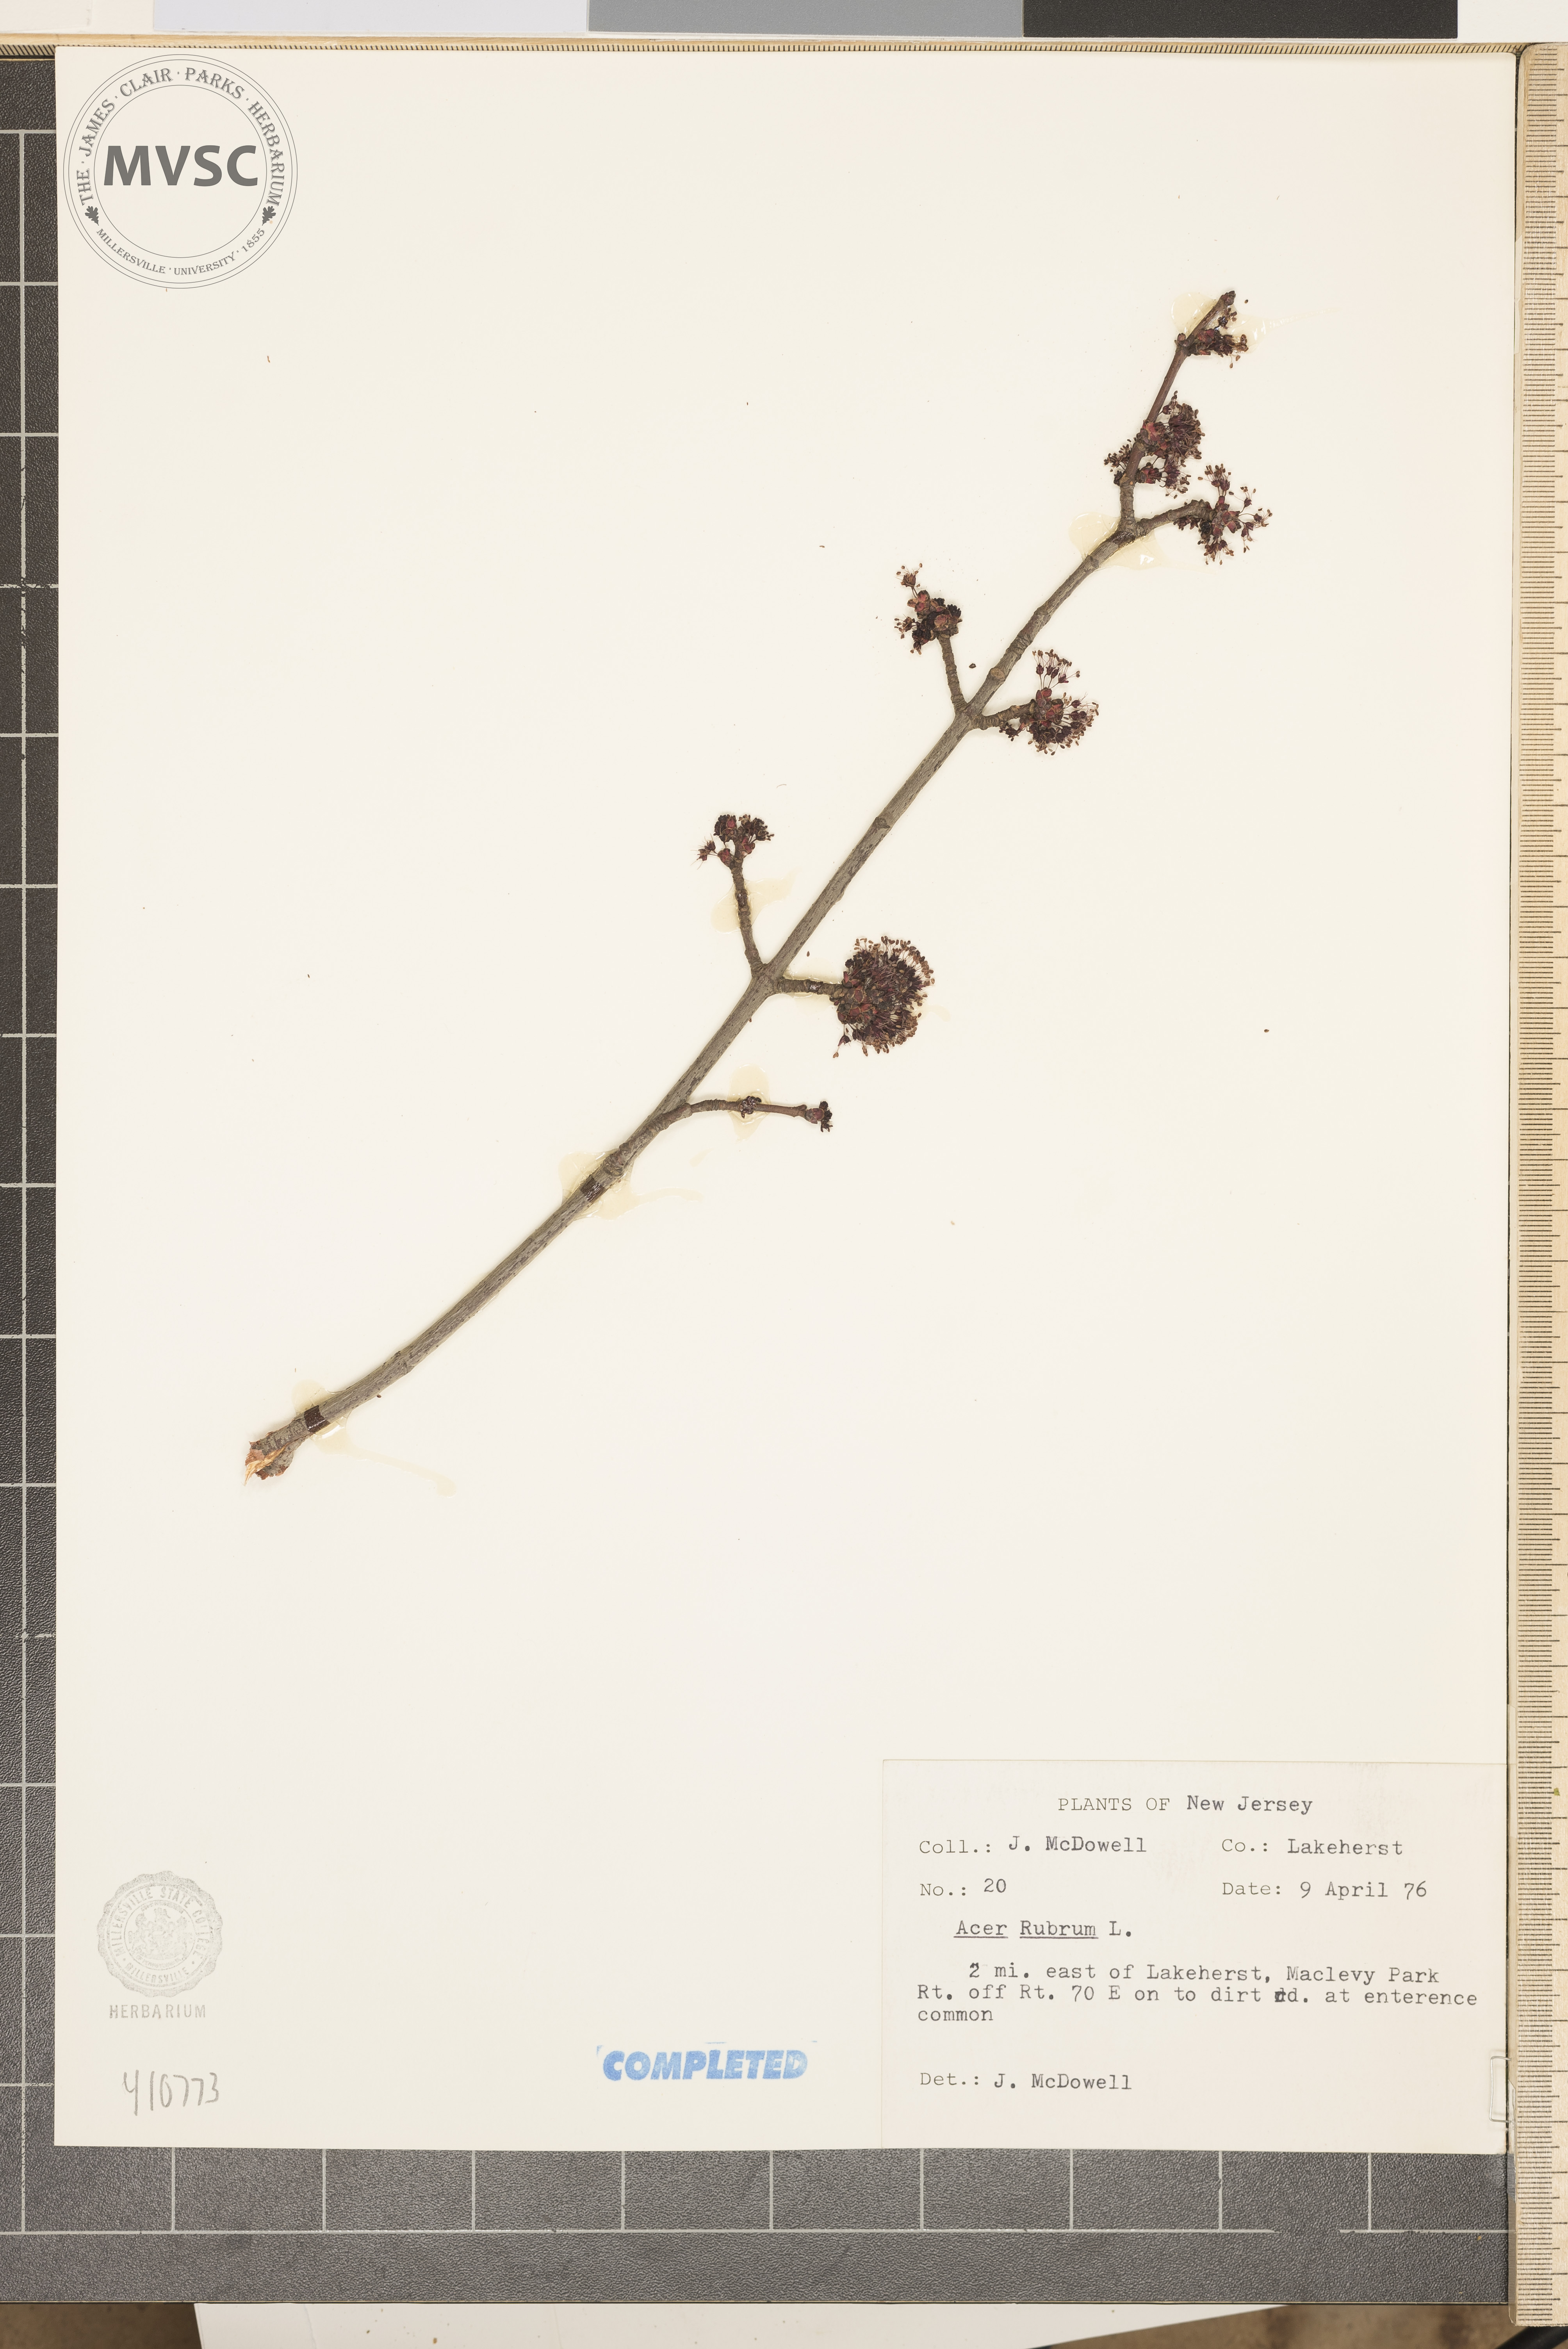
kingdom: Plantae
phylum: Tracheophyta
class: Magnoliopsida
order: Sapindales
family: Sapindaceae
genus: Acer
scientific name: Acer rubrum
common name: Red maple
